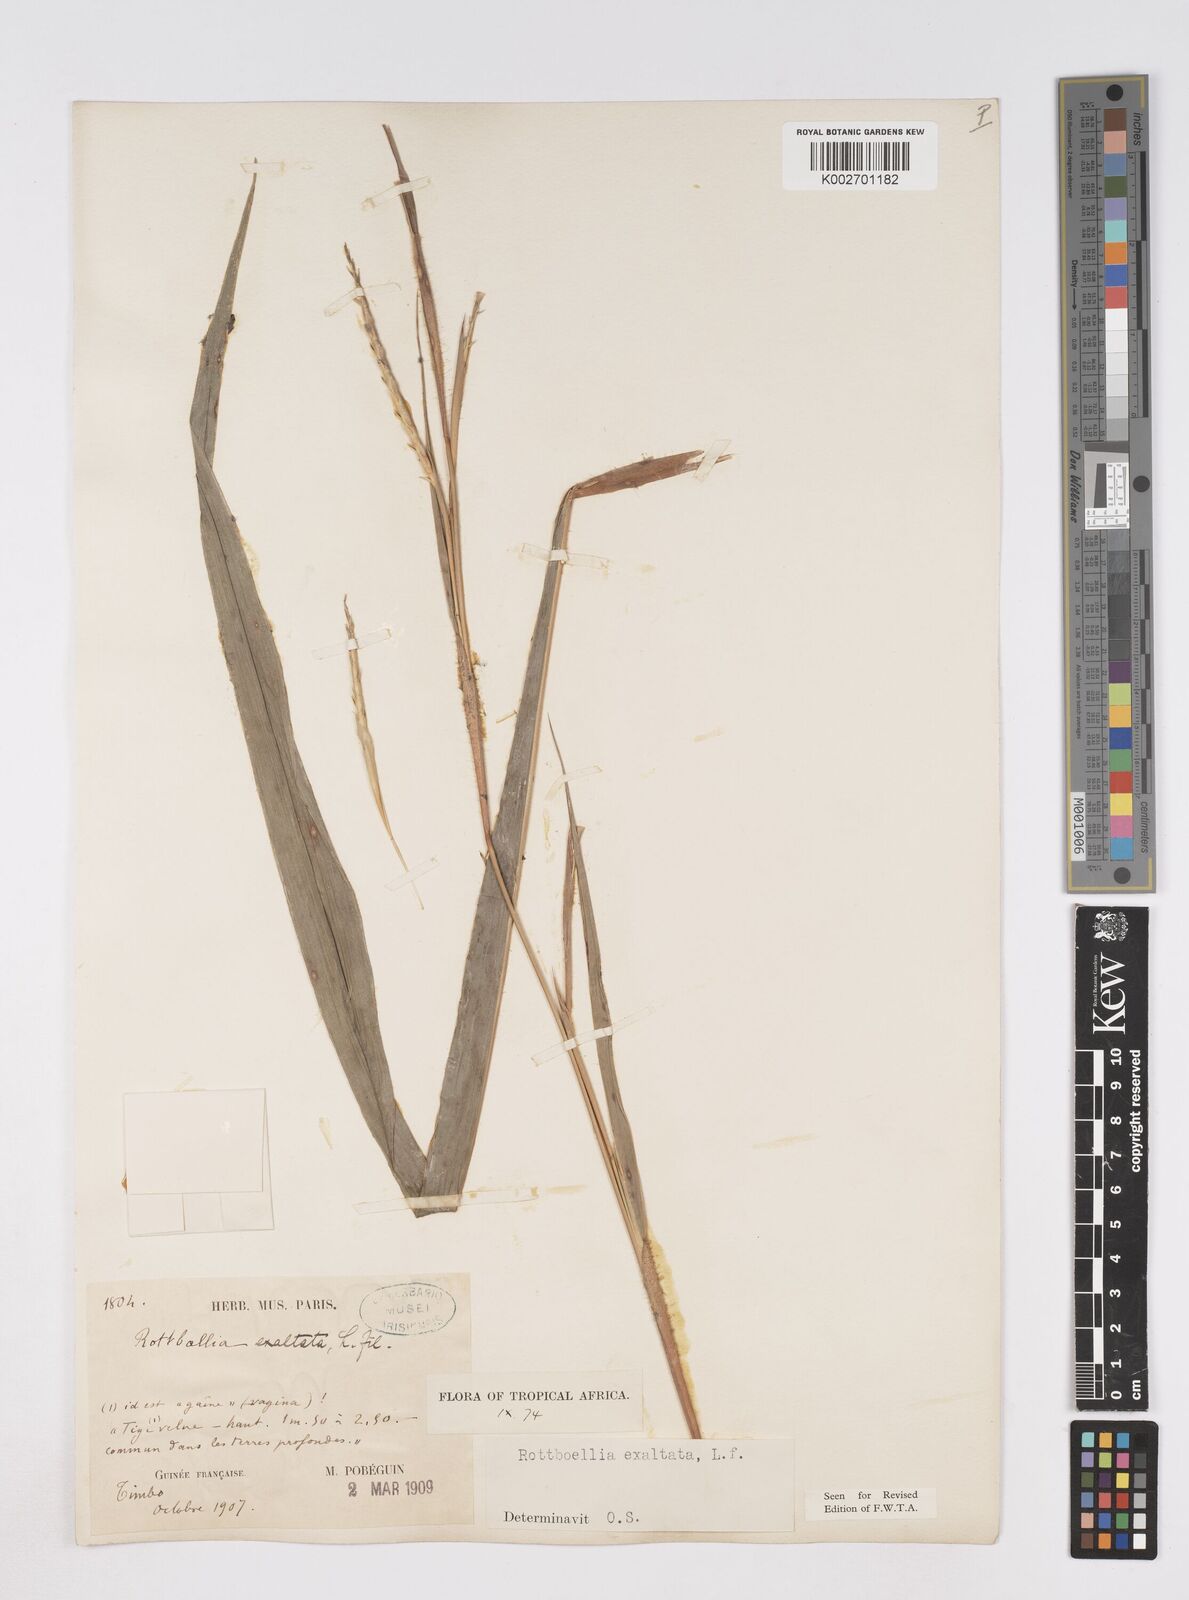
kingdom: Plantae
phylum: Tracheophyta
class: Liliopsida
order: Poales
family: Poaceae
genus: Ophiuros
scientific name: Ophiuros exaltatus
